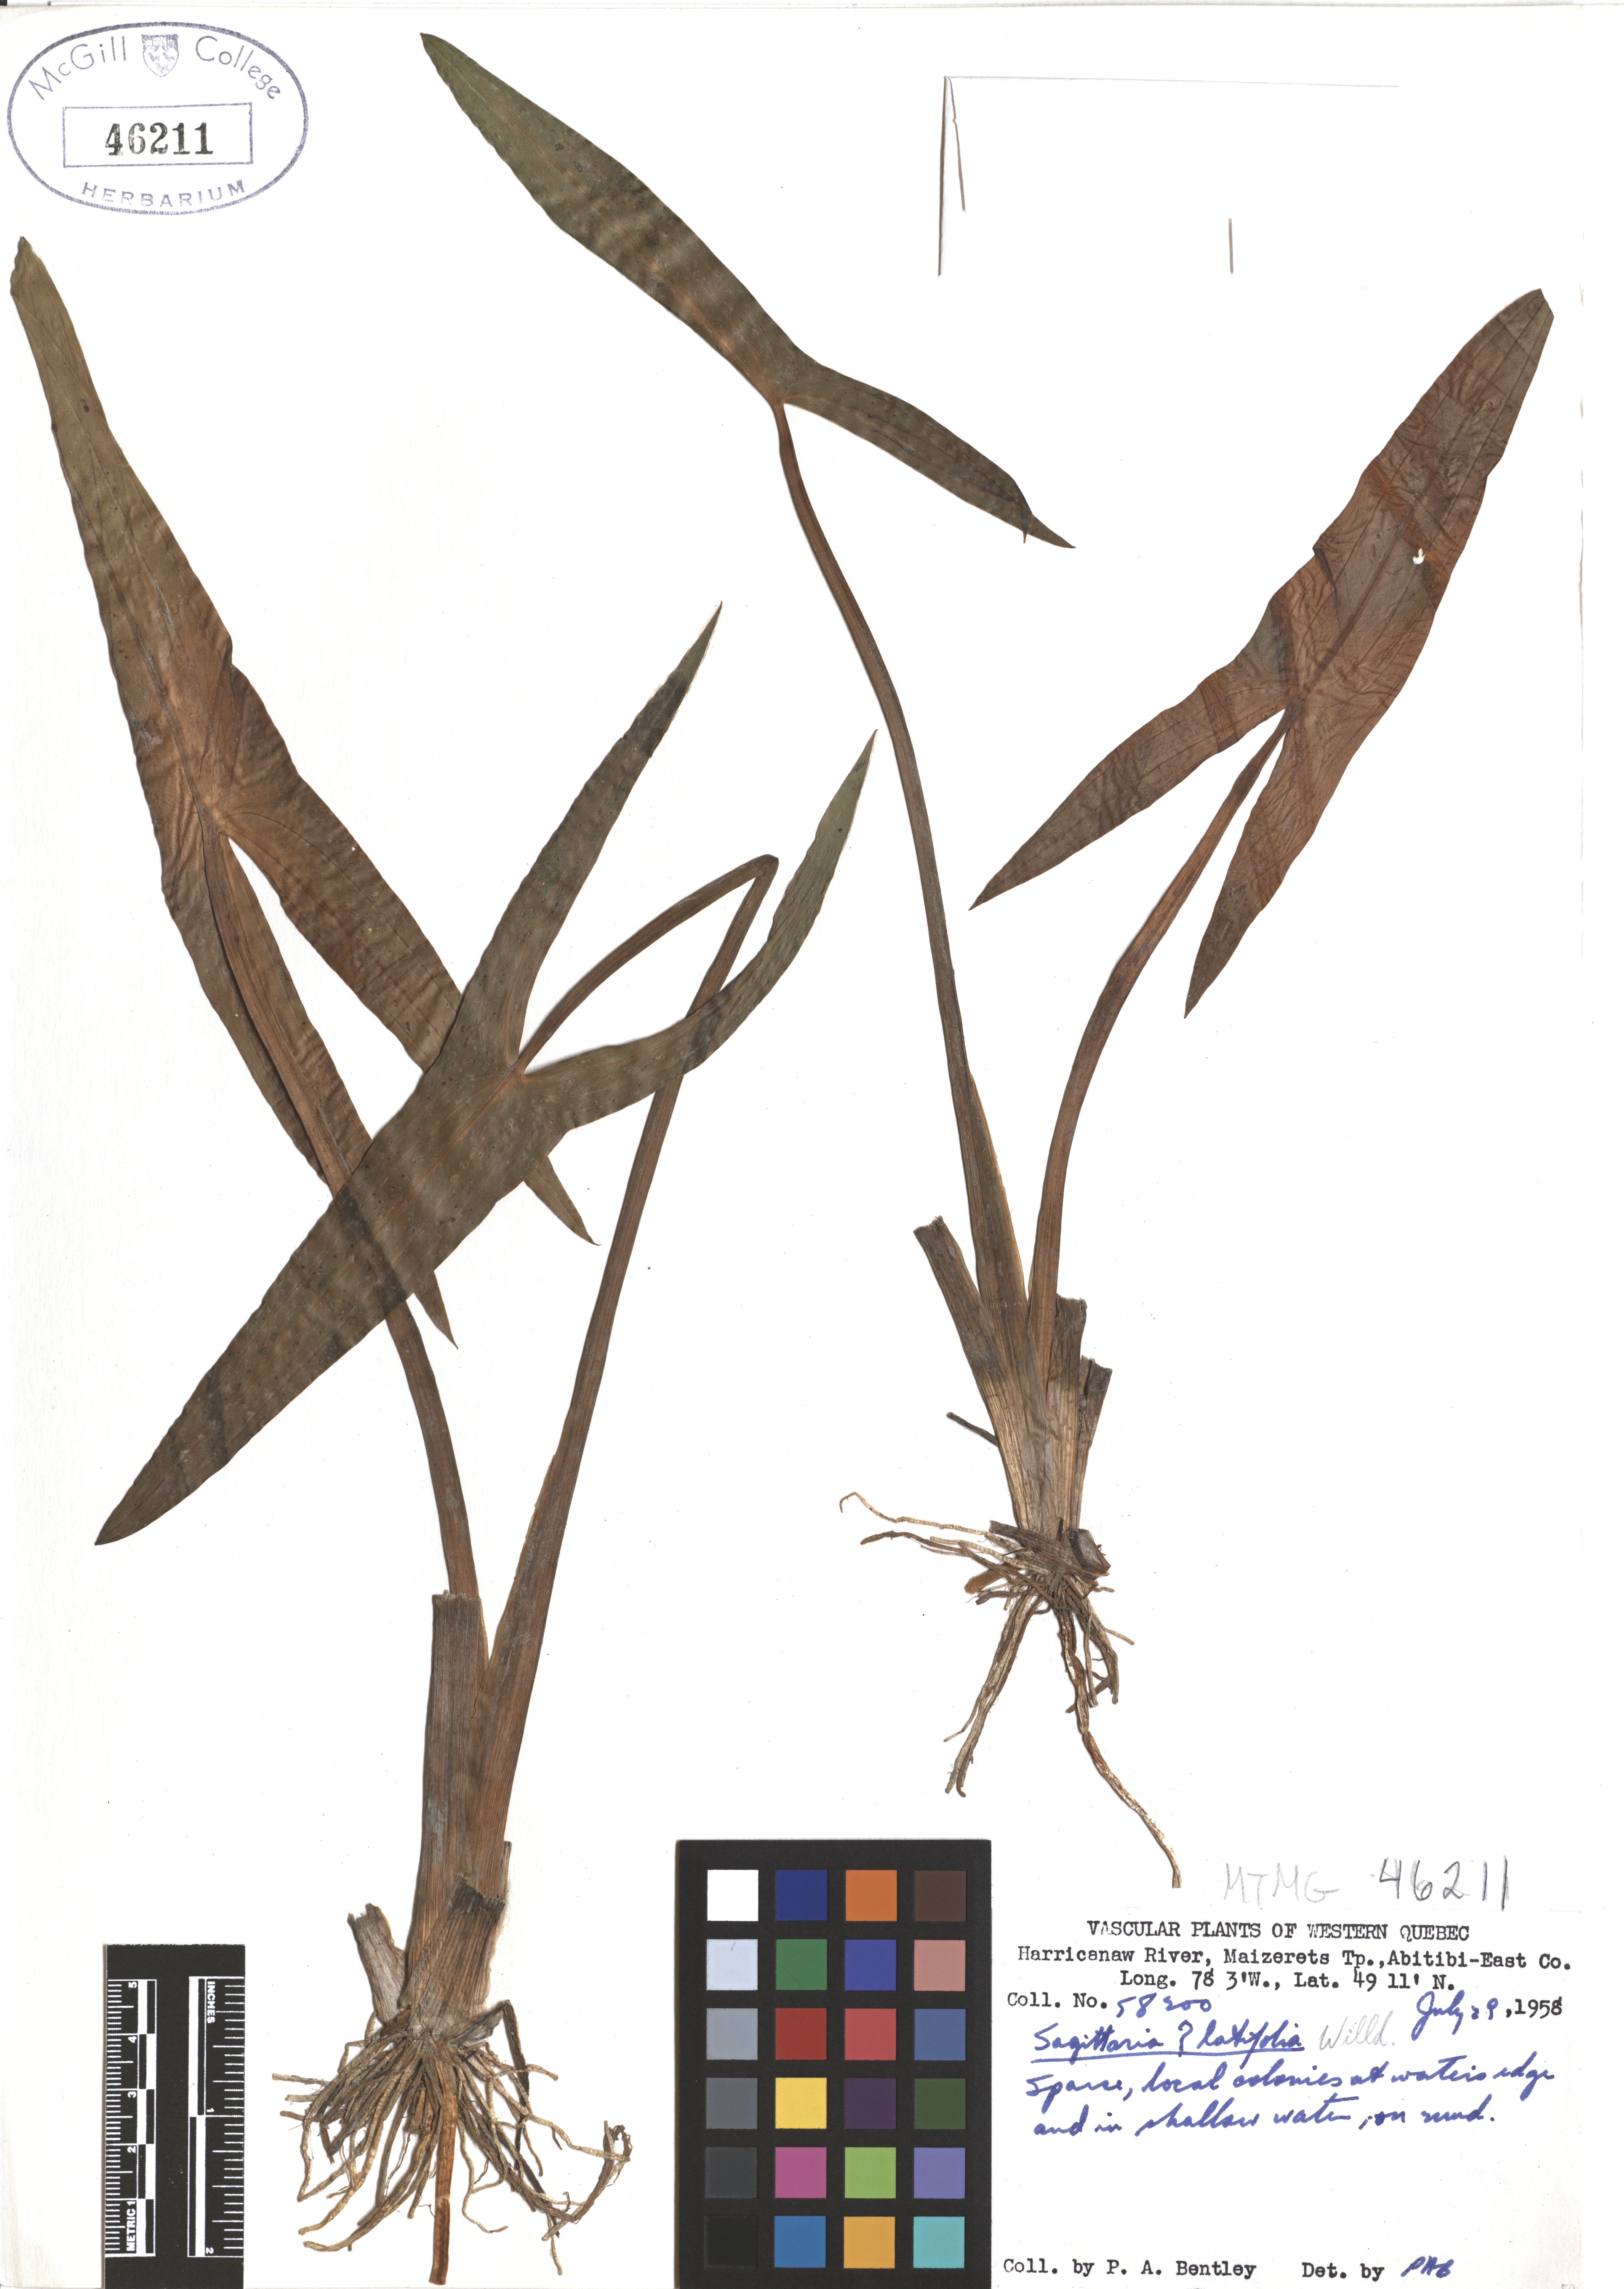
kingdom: Plantae
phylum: Tracheophyta
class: Liliopsida
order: Alismatales
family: Alismataceae
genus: Sagittaria
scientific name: Sagittaria latifolia
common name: Duck-potato
